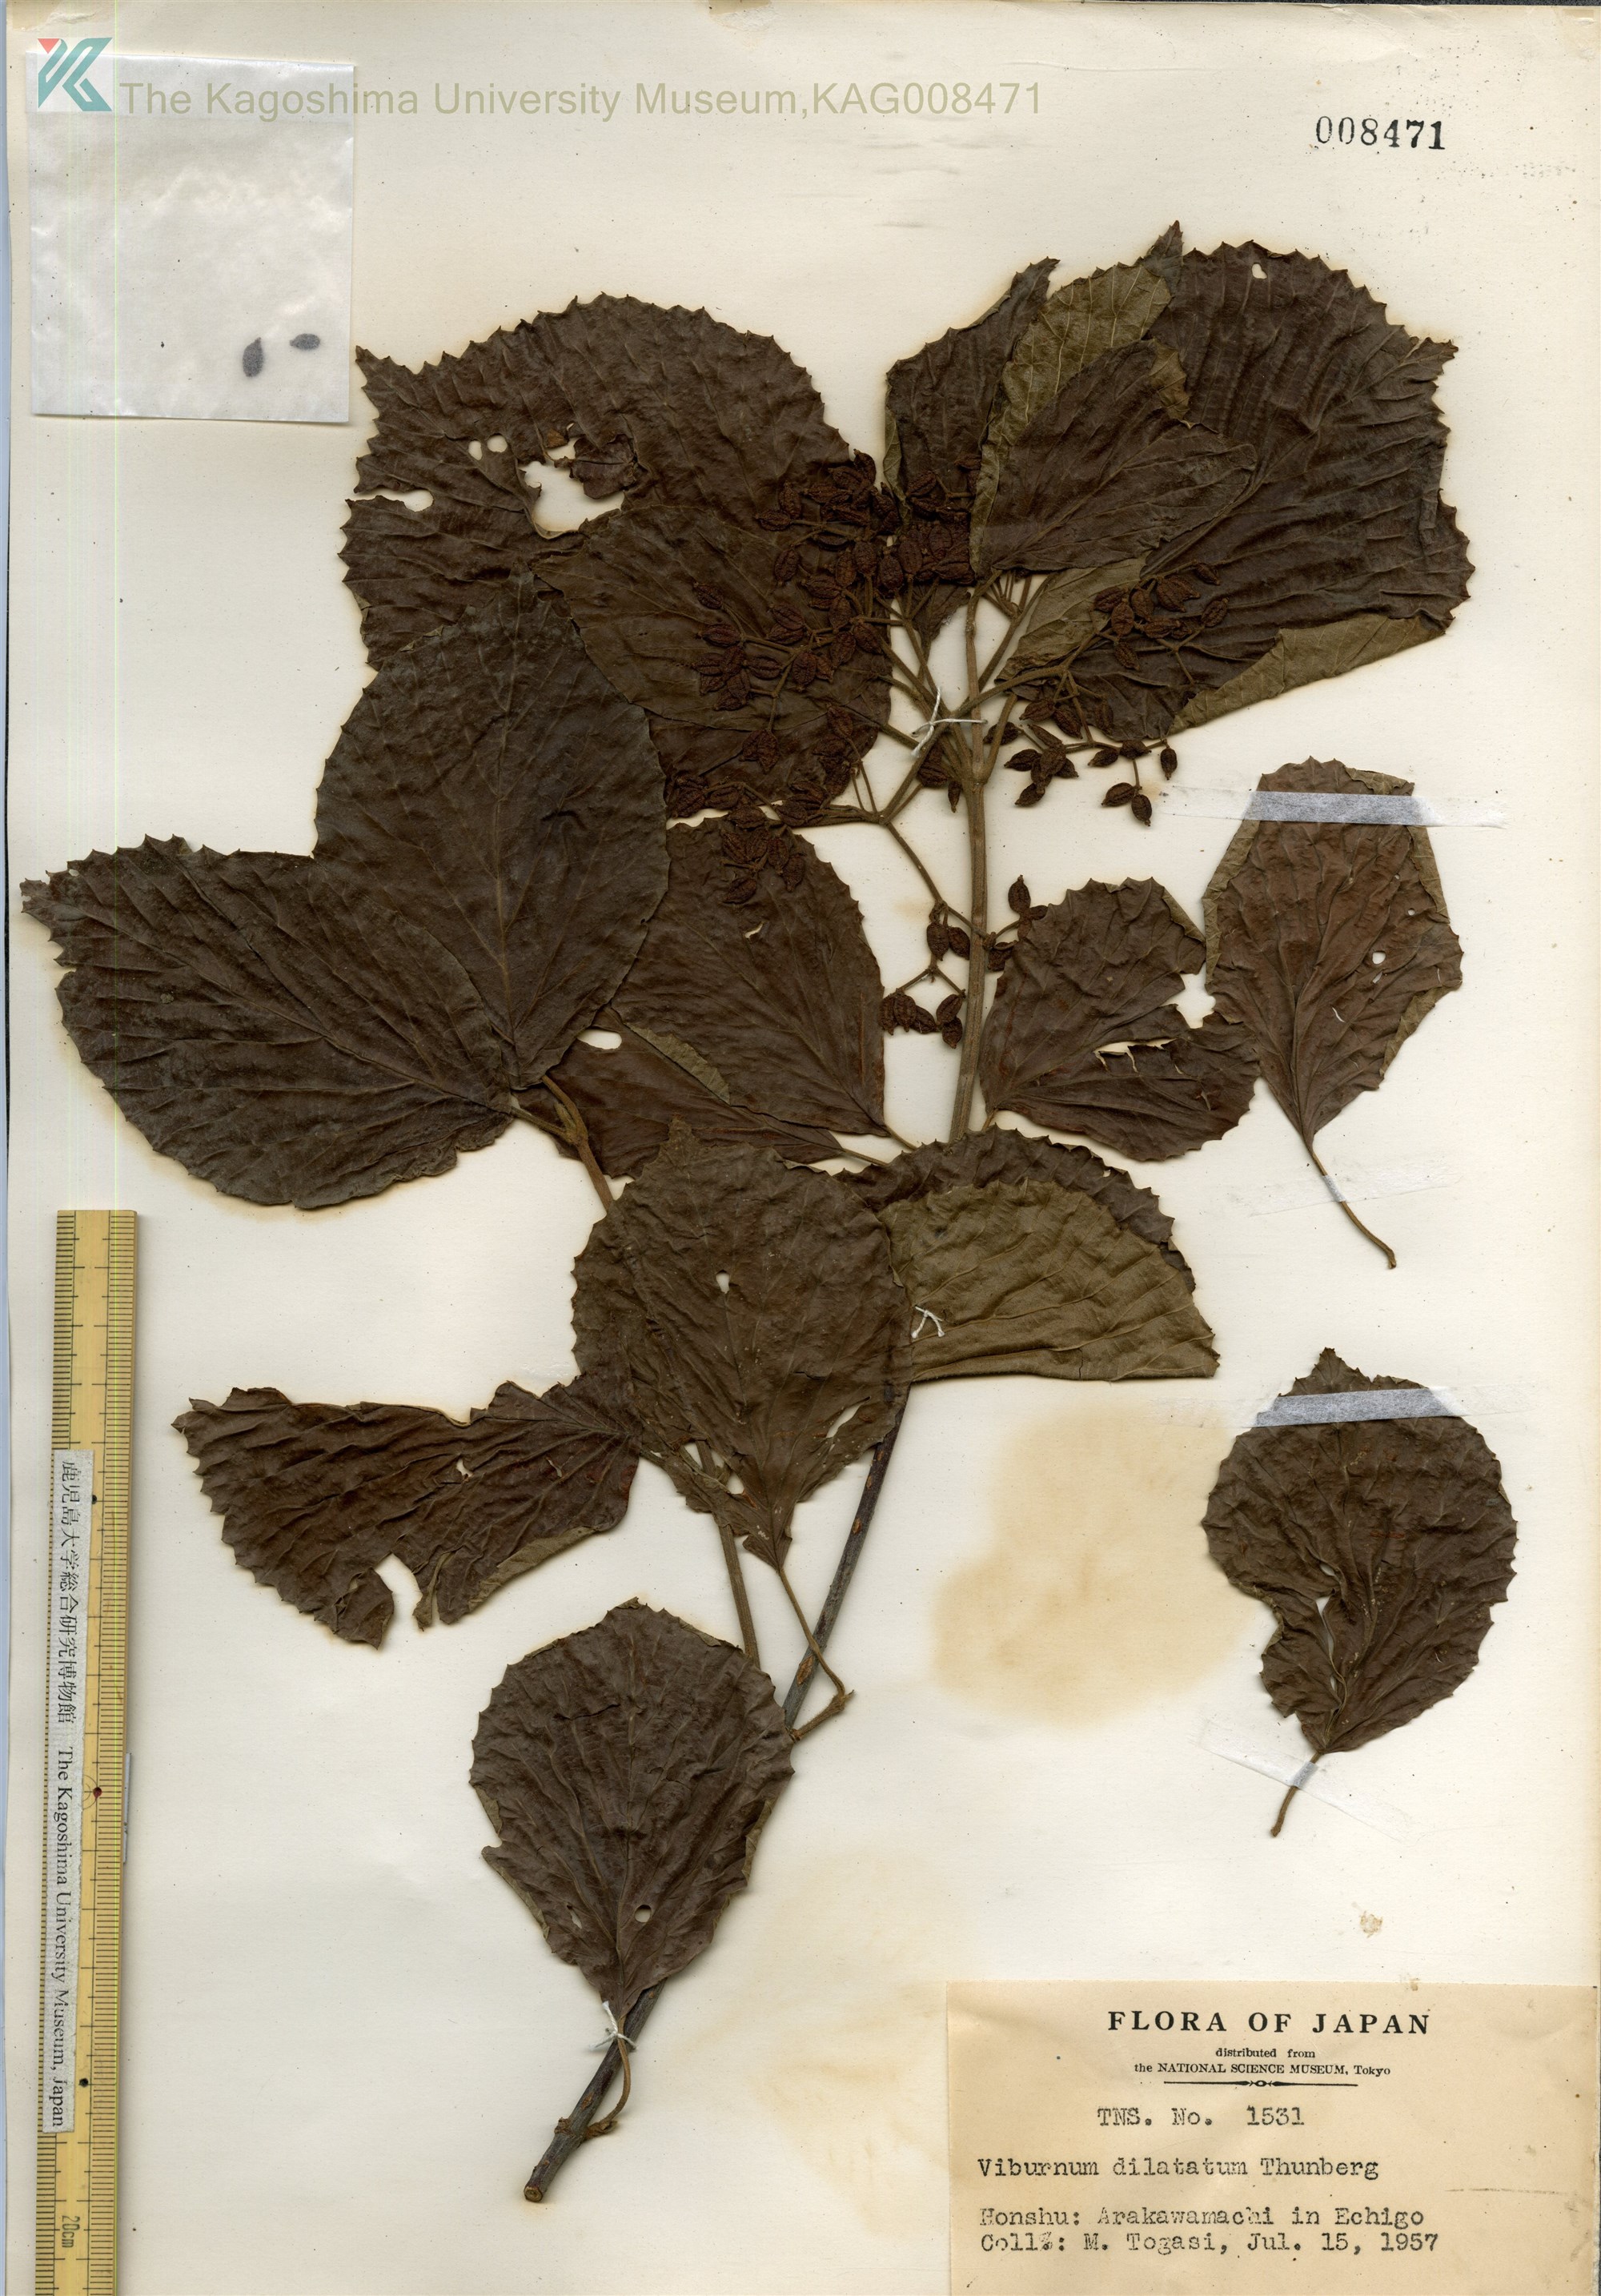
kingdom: Plantae
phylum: Tracheophyta
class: Magnoliopsida
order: Dipsacales
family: Viburnaceae
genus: Viburnum
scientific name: Viburnum dilatatum
